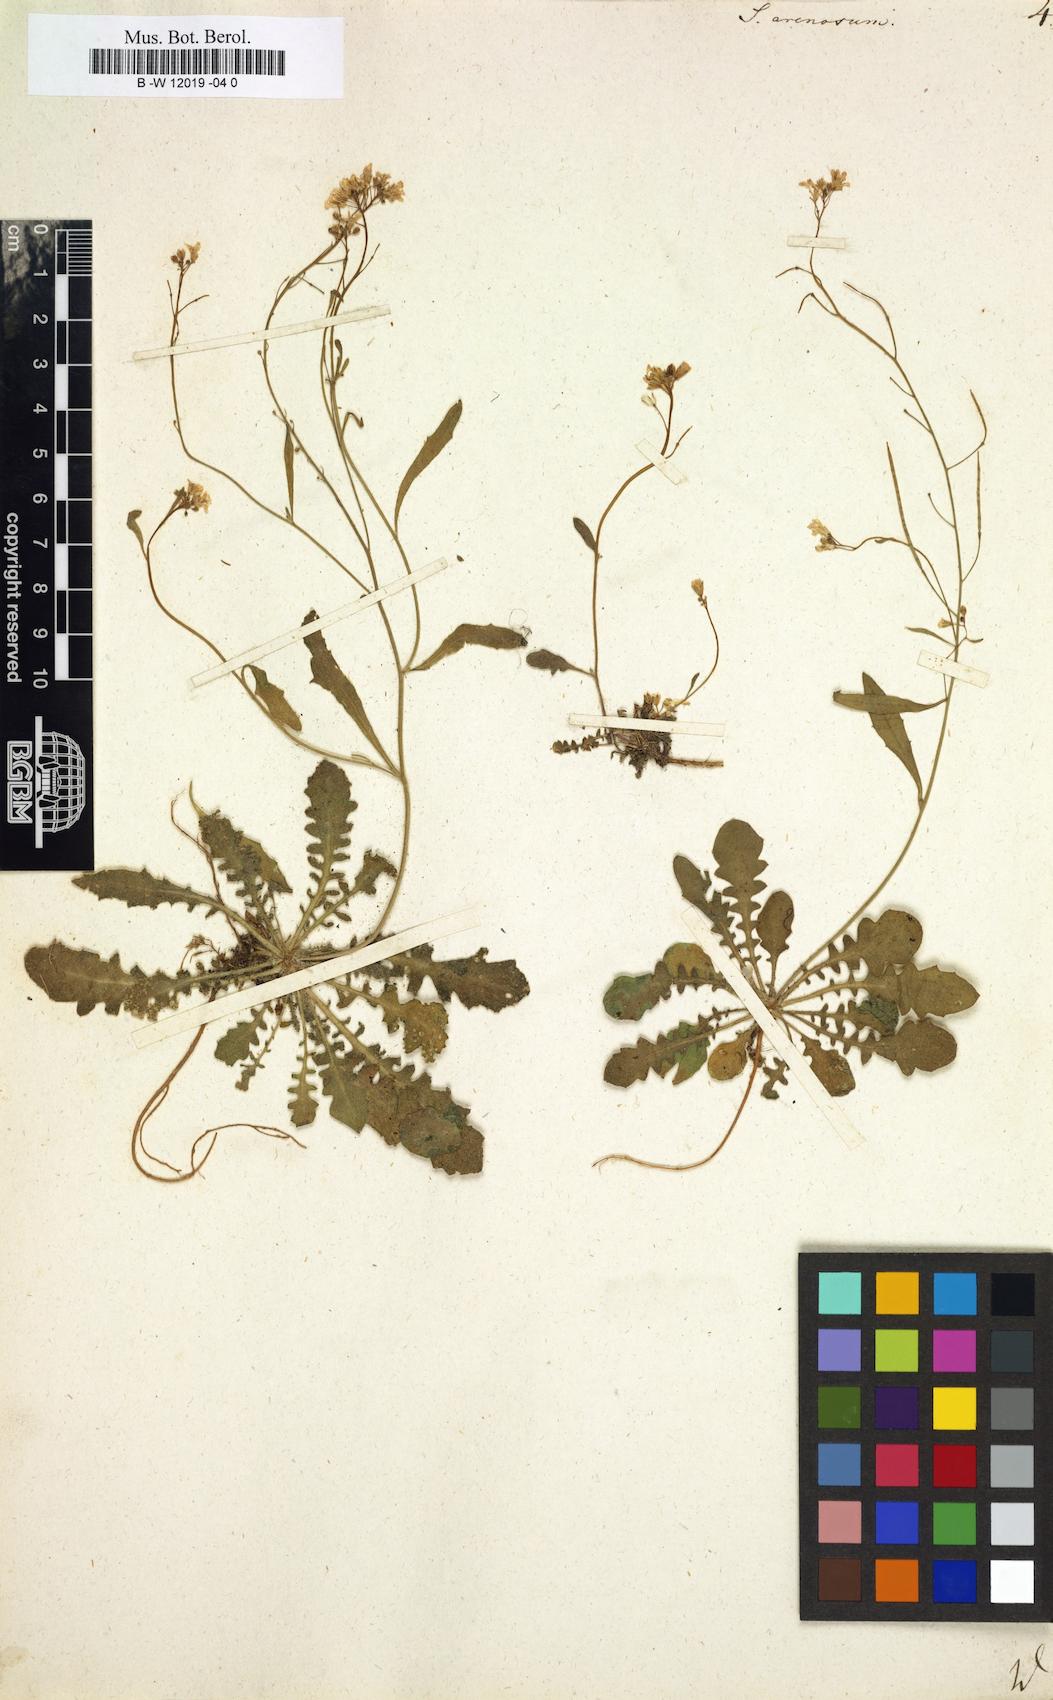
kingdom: Plantae
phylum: Tracheophyta
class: Magnoliopsida
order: Brassicales
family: Brassicaceae
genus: Arabidopsis
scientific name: Arabidopsis
